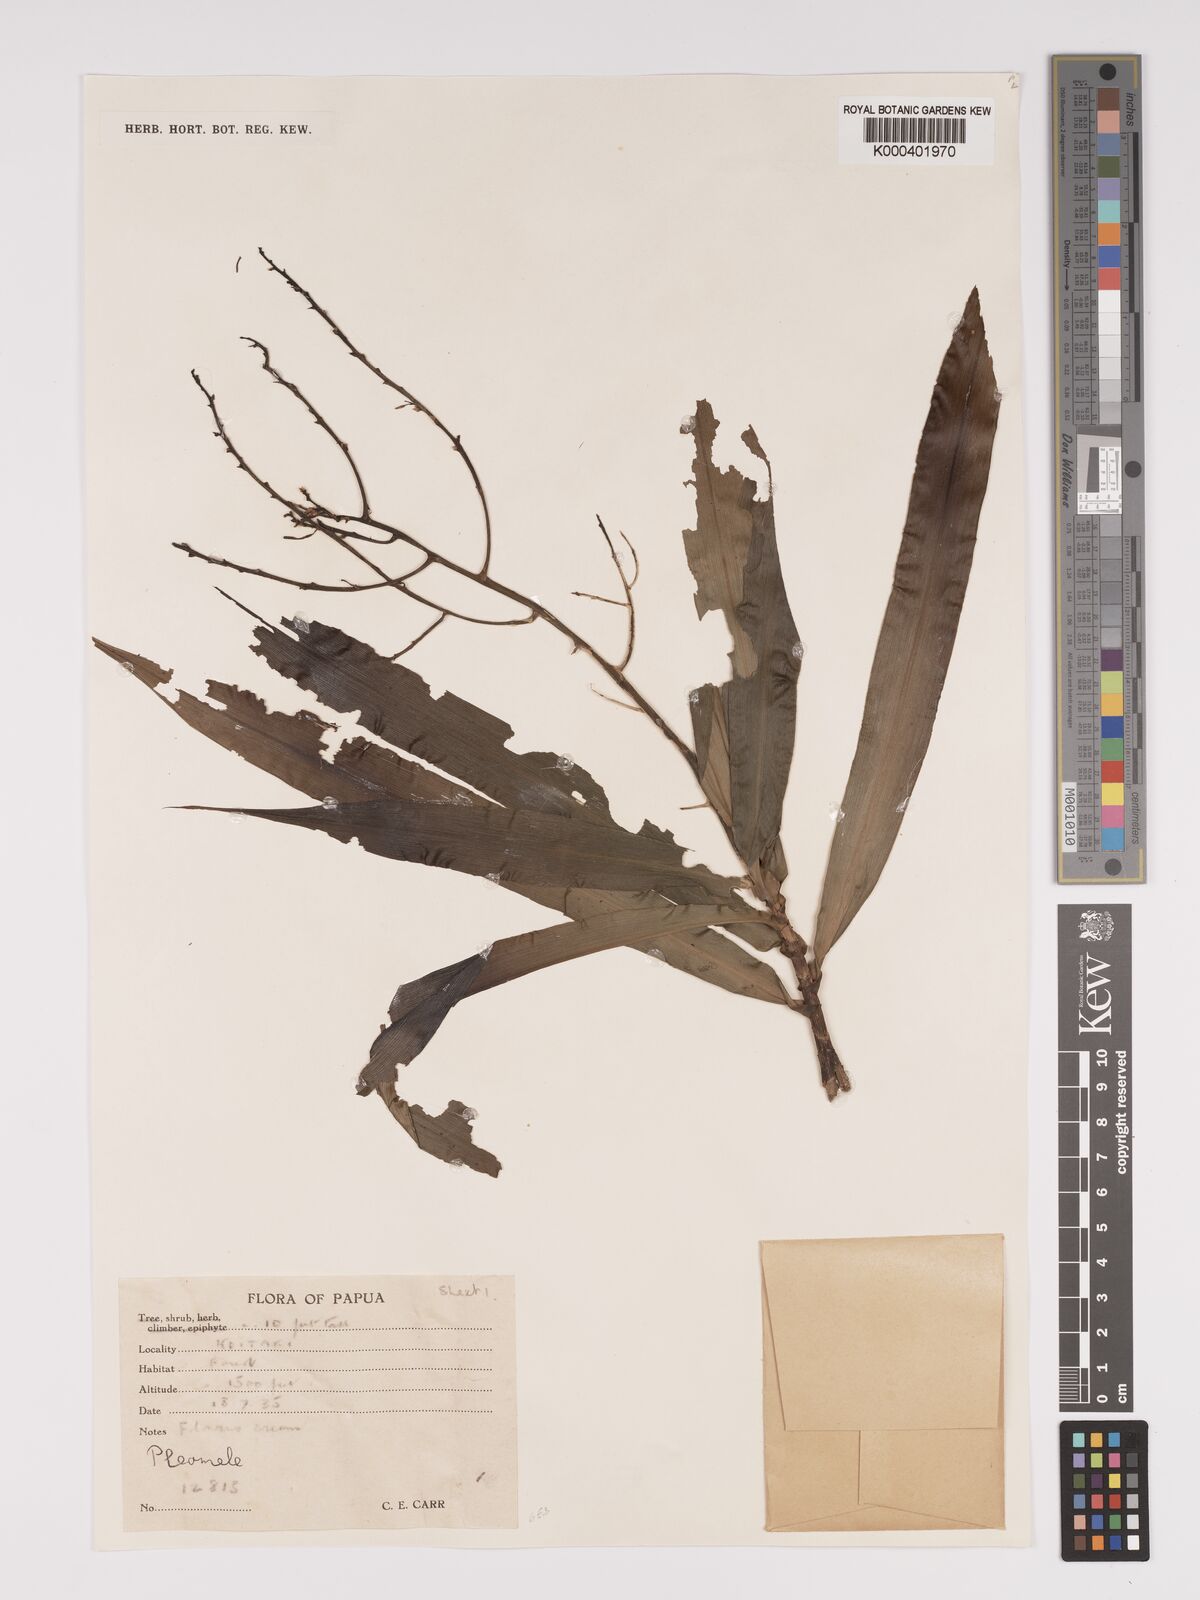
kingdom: Plantae
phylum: Tracheophyta
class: Liliopsida
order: Asparagales
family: Asparagaceae
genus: Dracaena
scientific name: Dracaena angustifolia
